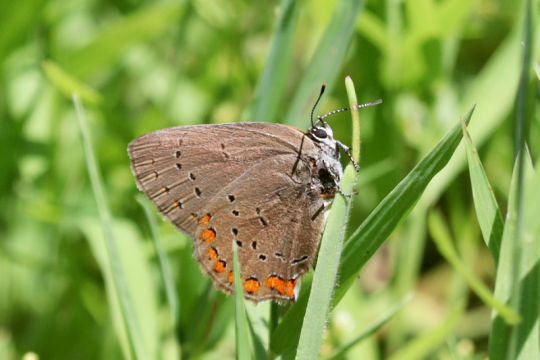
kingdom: Animalia
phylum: Arthropoda
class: Insecta
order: Lepidoptera
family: Lycaenidae
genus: Harkenclenus
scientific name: Harkenclenus titus
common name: Coral Hairstreak
